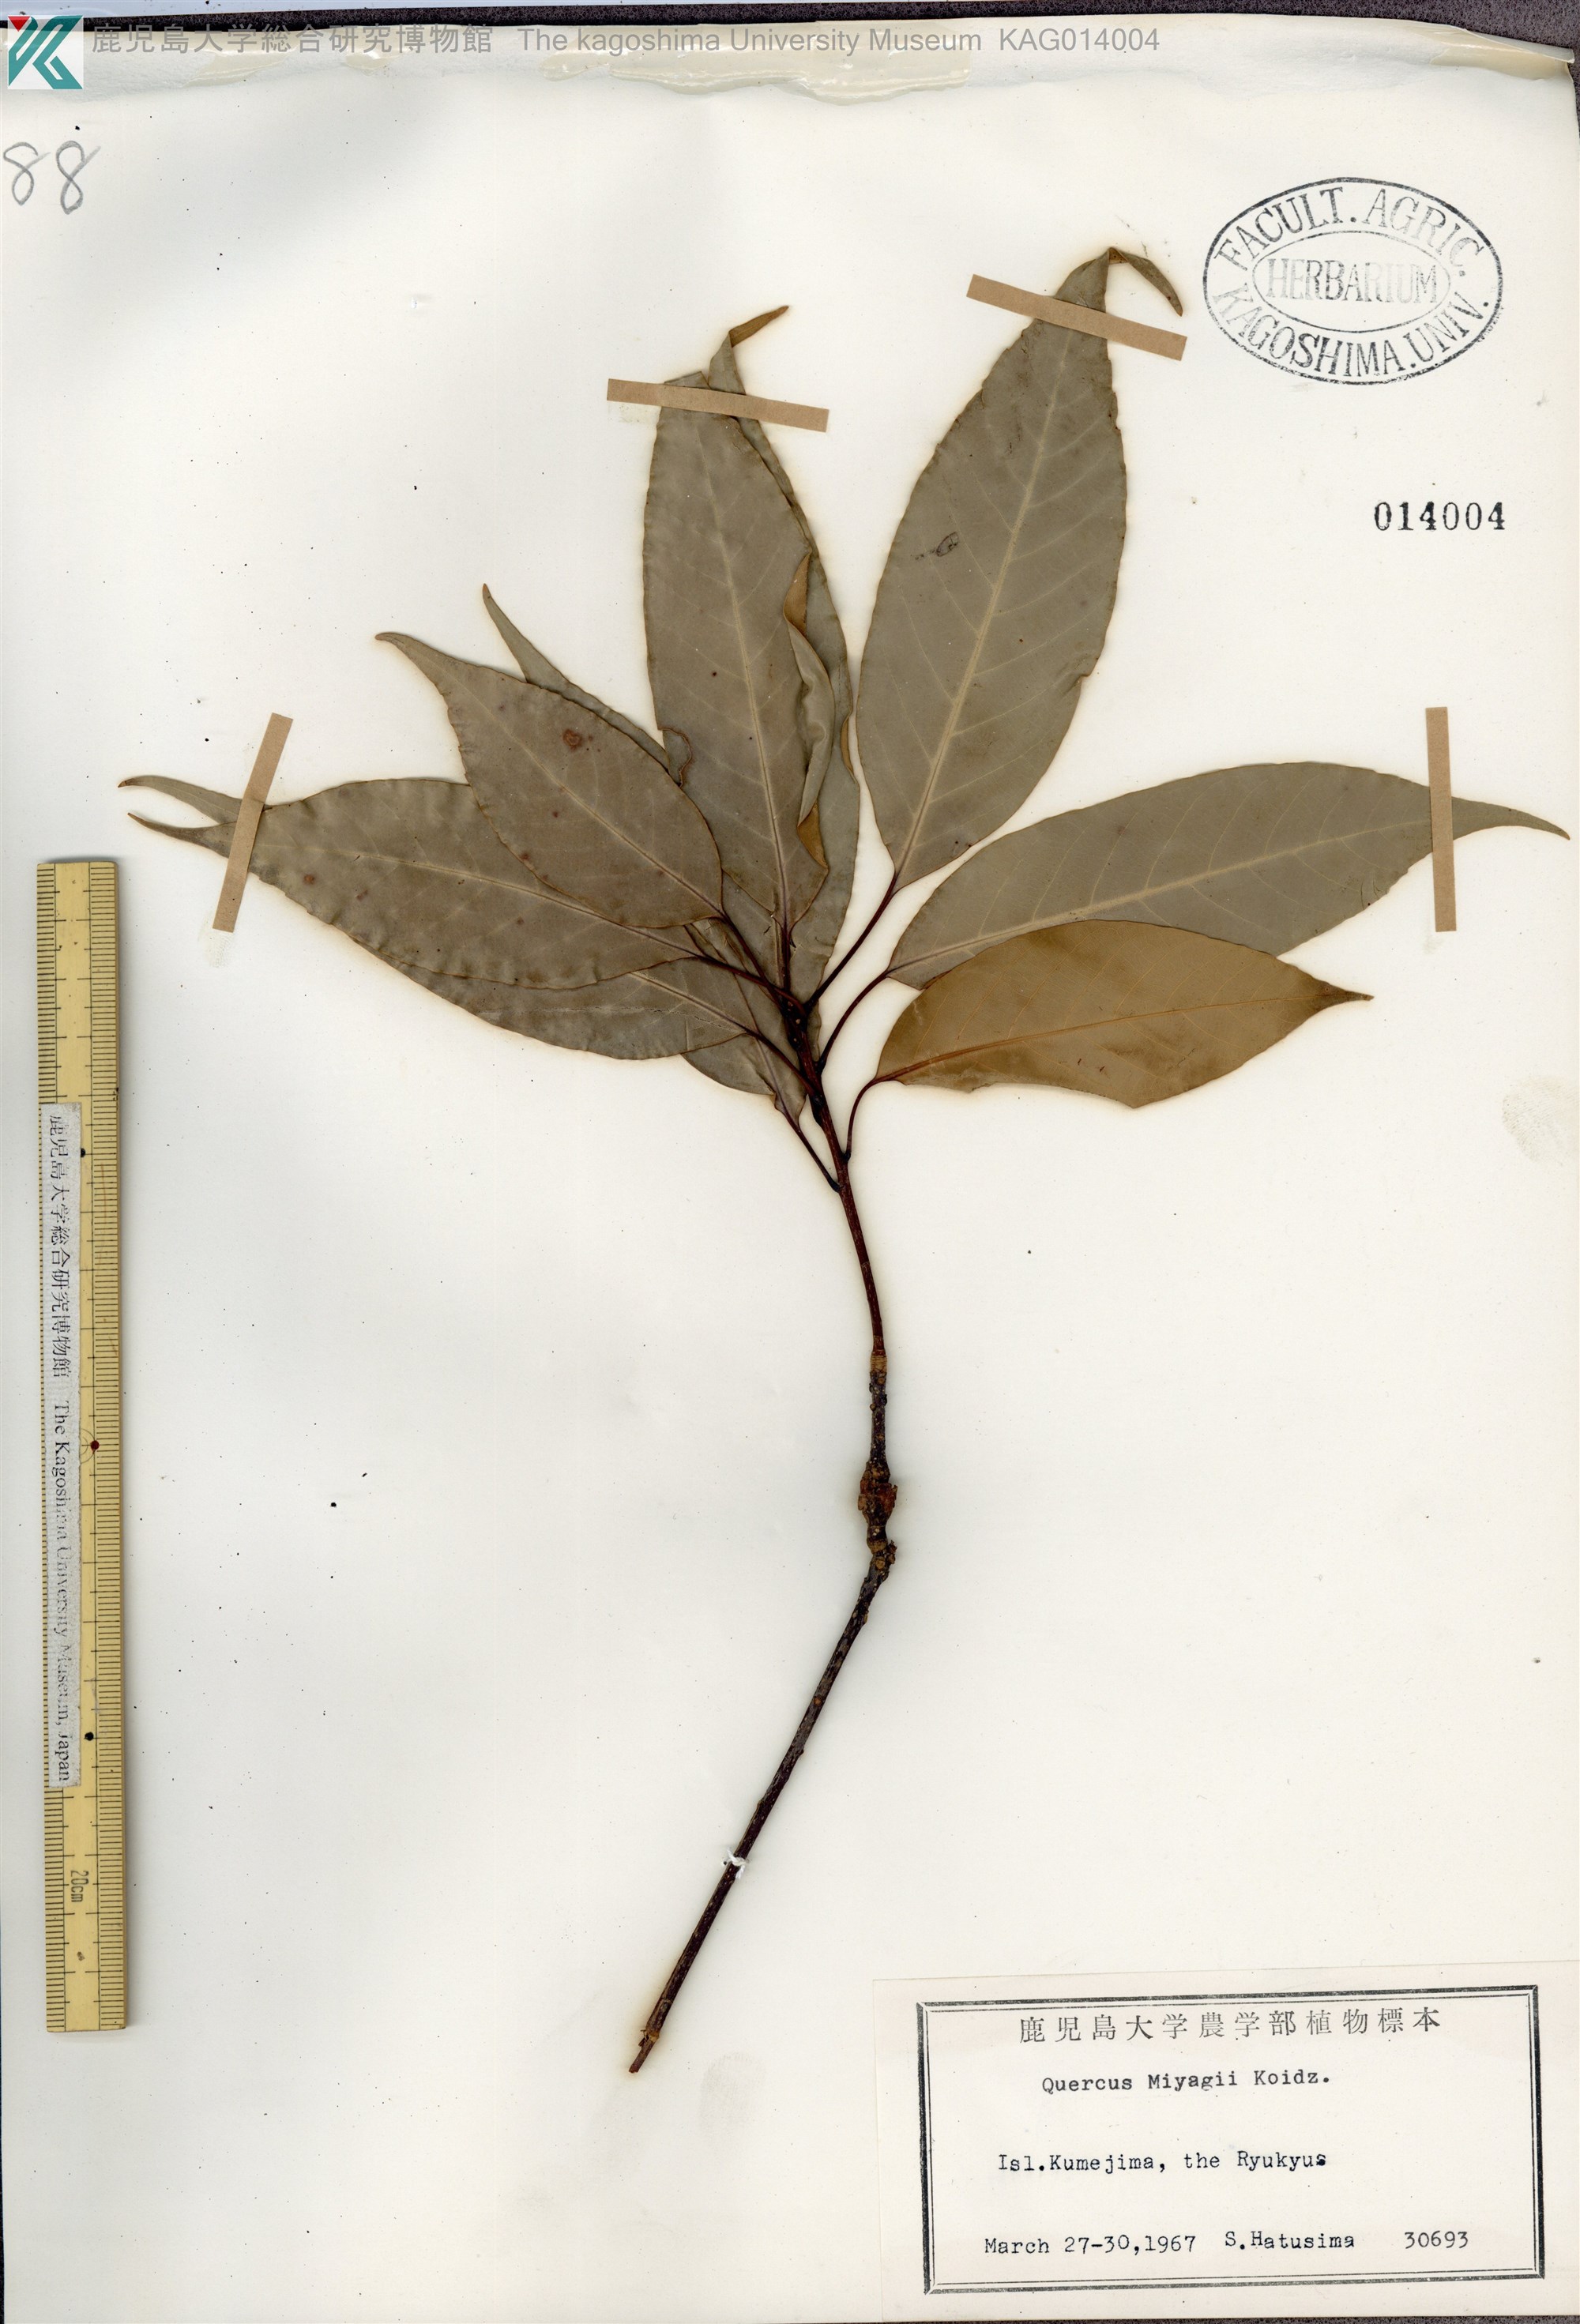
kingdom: Plantae
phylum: Tracheophyta
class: Magnoliopsida
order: Fagales
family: Fagaceae
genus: Quercus
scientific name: Quercus miyagii
